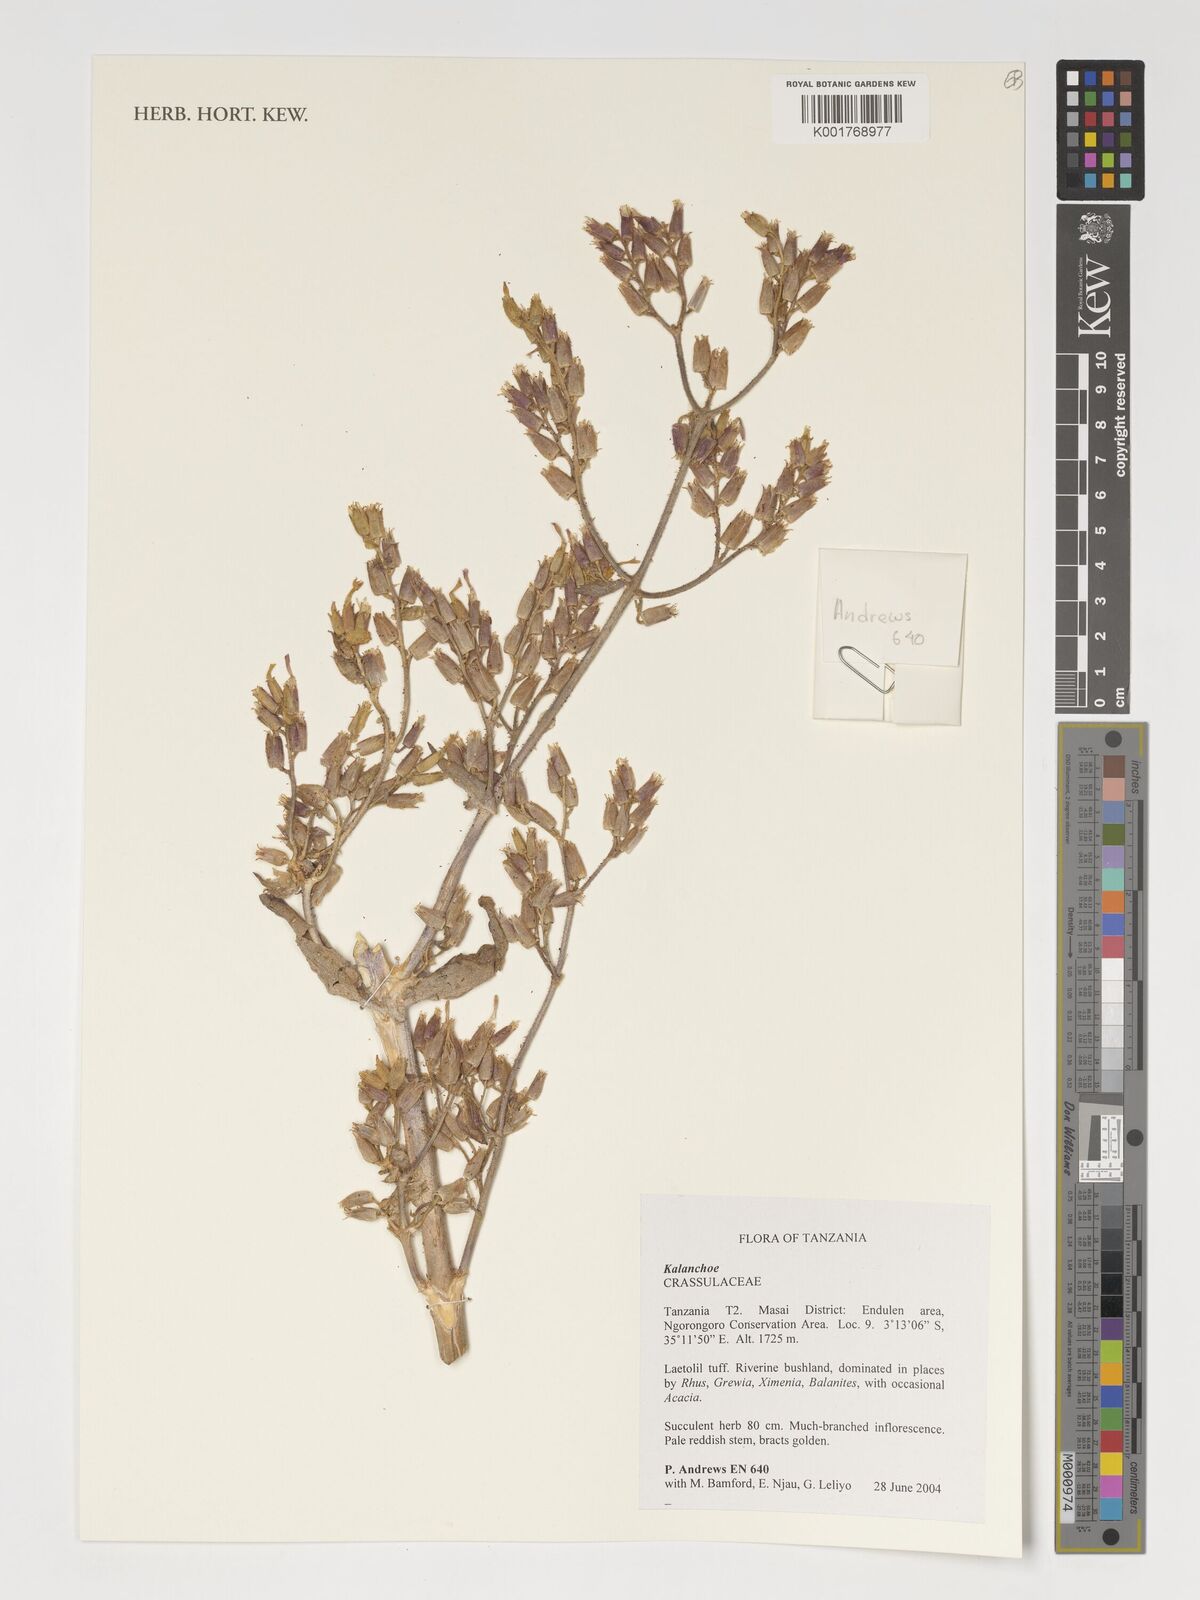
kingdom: Plantae
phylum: Tracheophyta
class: Magnoliopsida
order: Saxifragales
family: Crassulaceae
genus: Kalanchoe
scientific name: Kalanchoe
